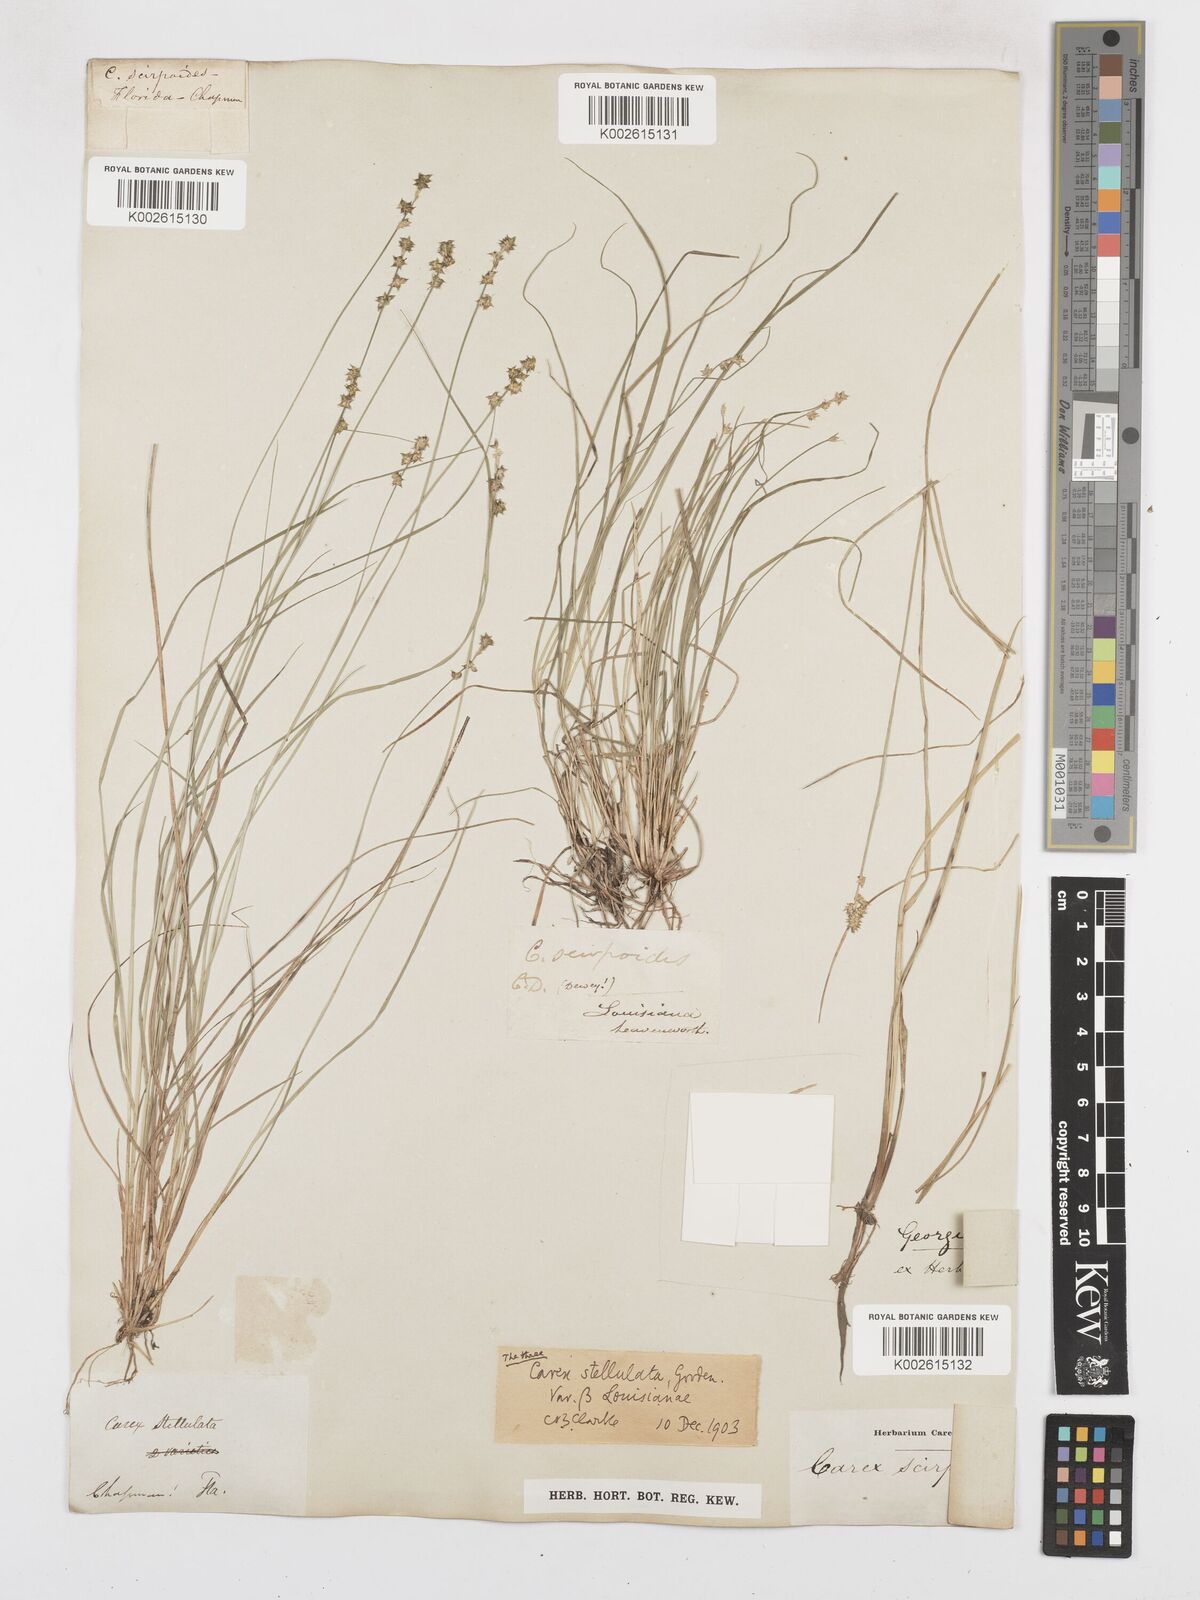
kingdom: Plantae
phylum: Tracheophyta
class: Liliopsida
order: Poales
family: Cyperaceae
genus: Carex
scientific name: Carex echinata
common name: Star sedge
